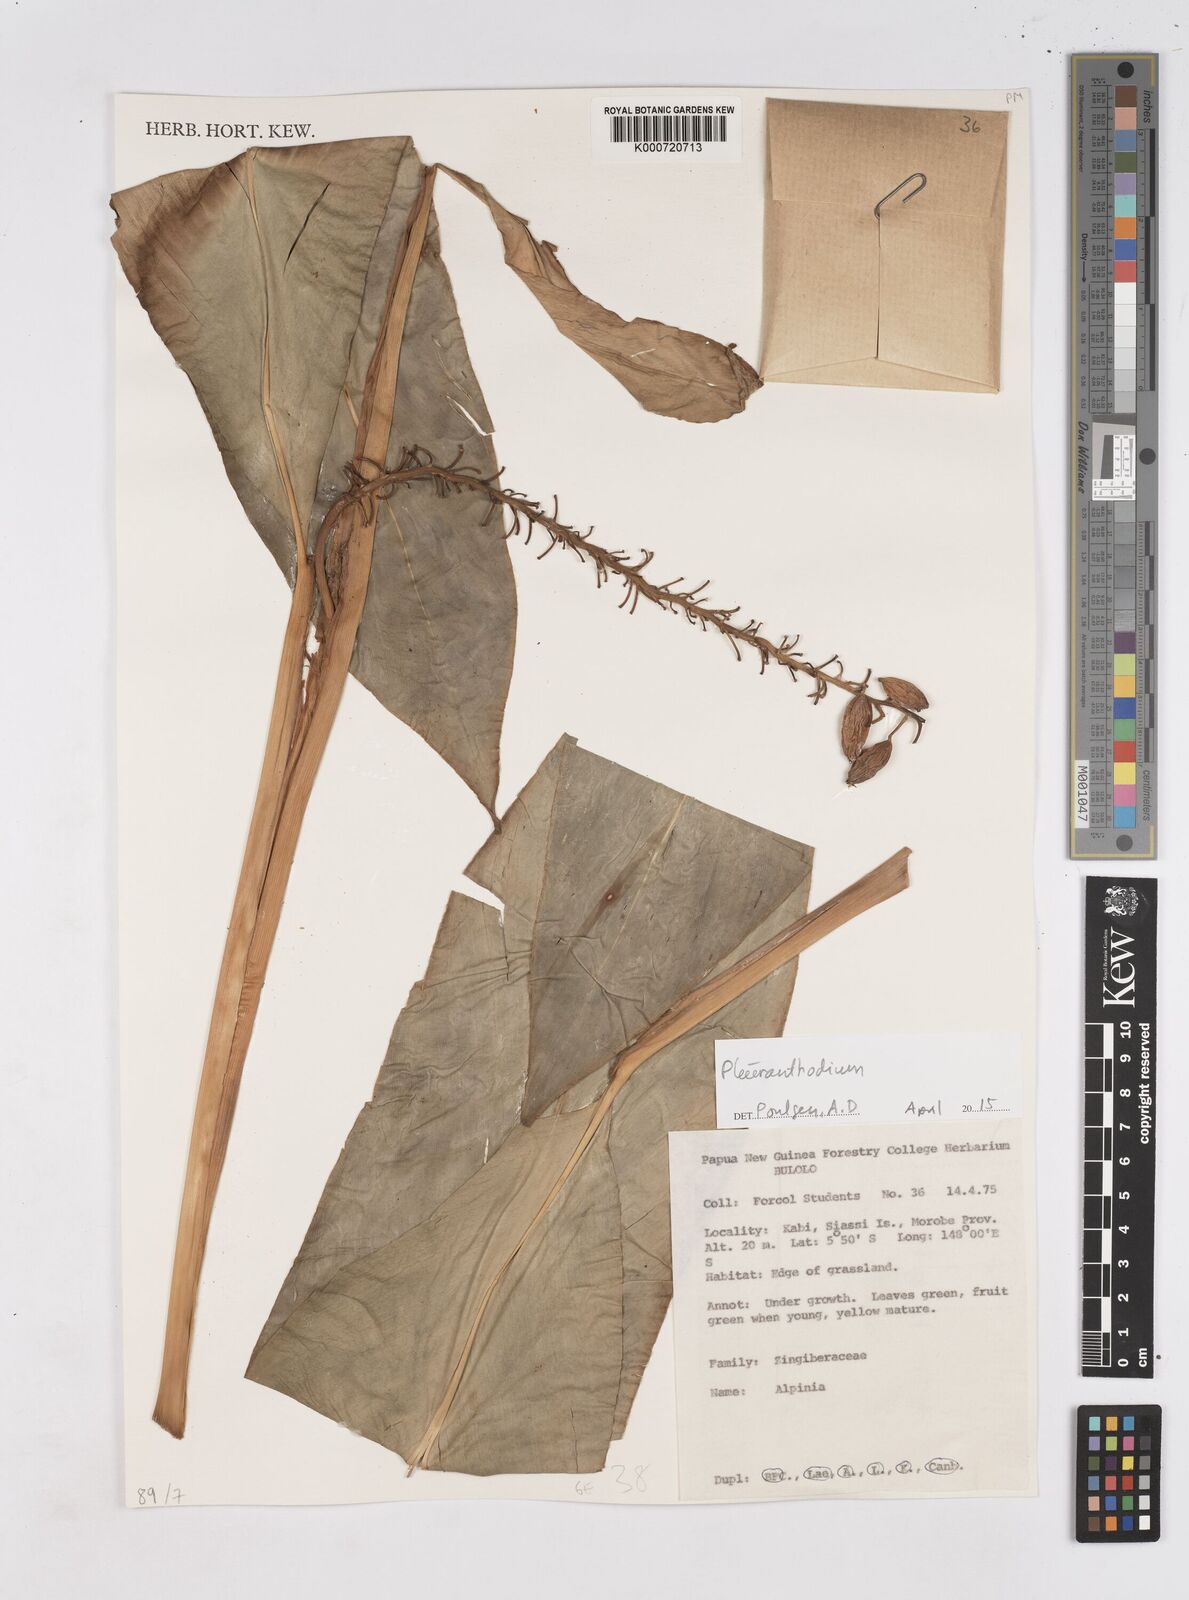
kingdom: Plantae
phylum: Tracheophyta
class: Liliopsida
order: Zingiberales
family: Zingiberaceae
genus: Pleuranthodium
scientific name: Pleuranthodium
